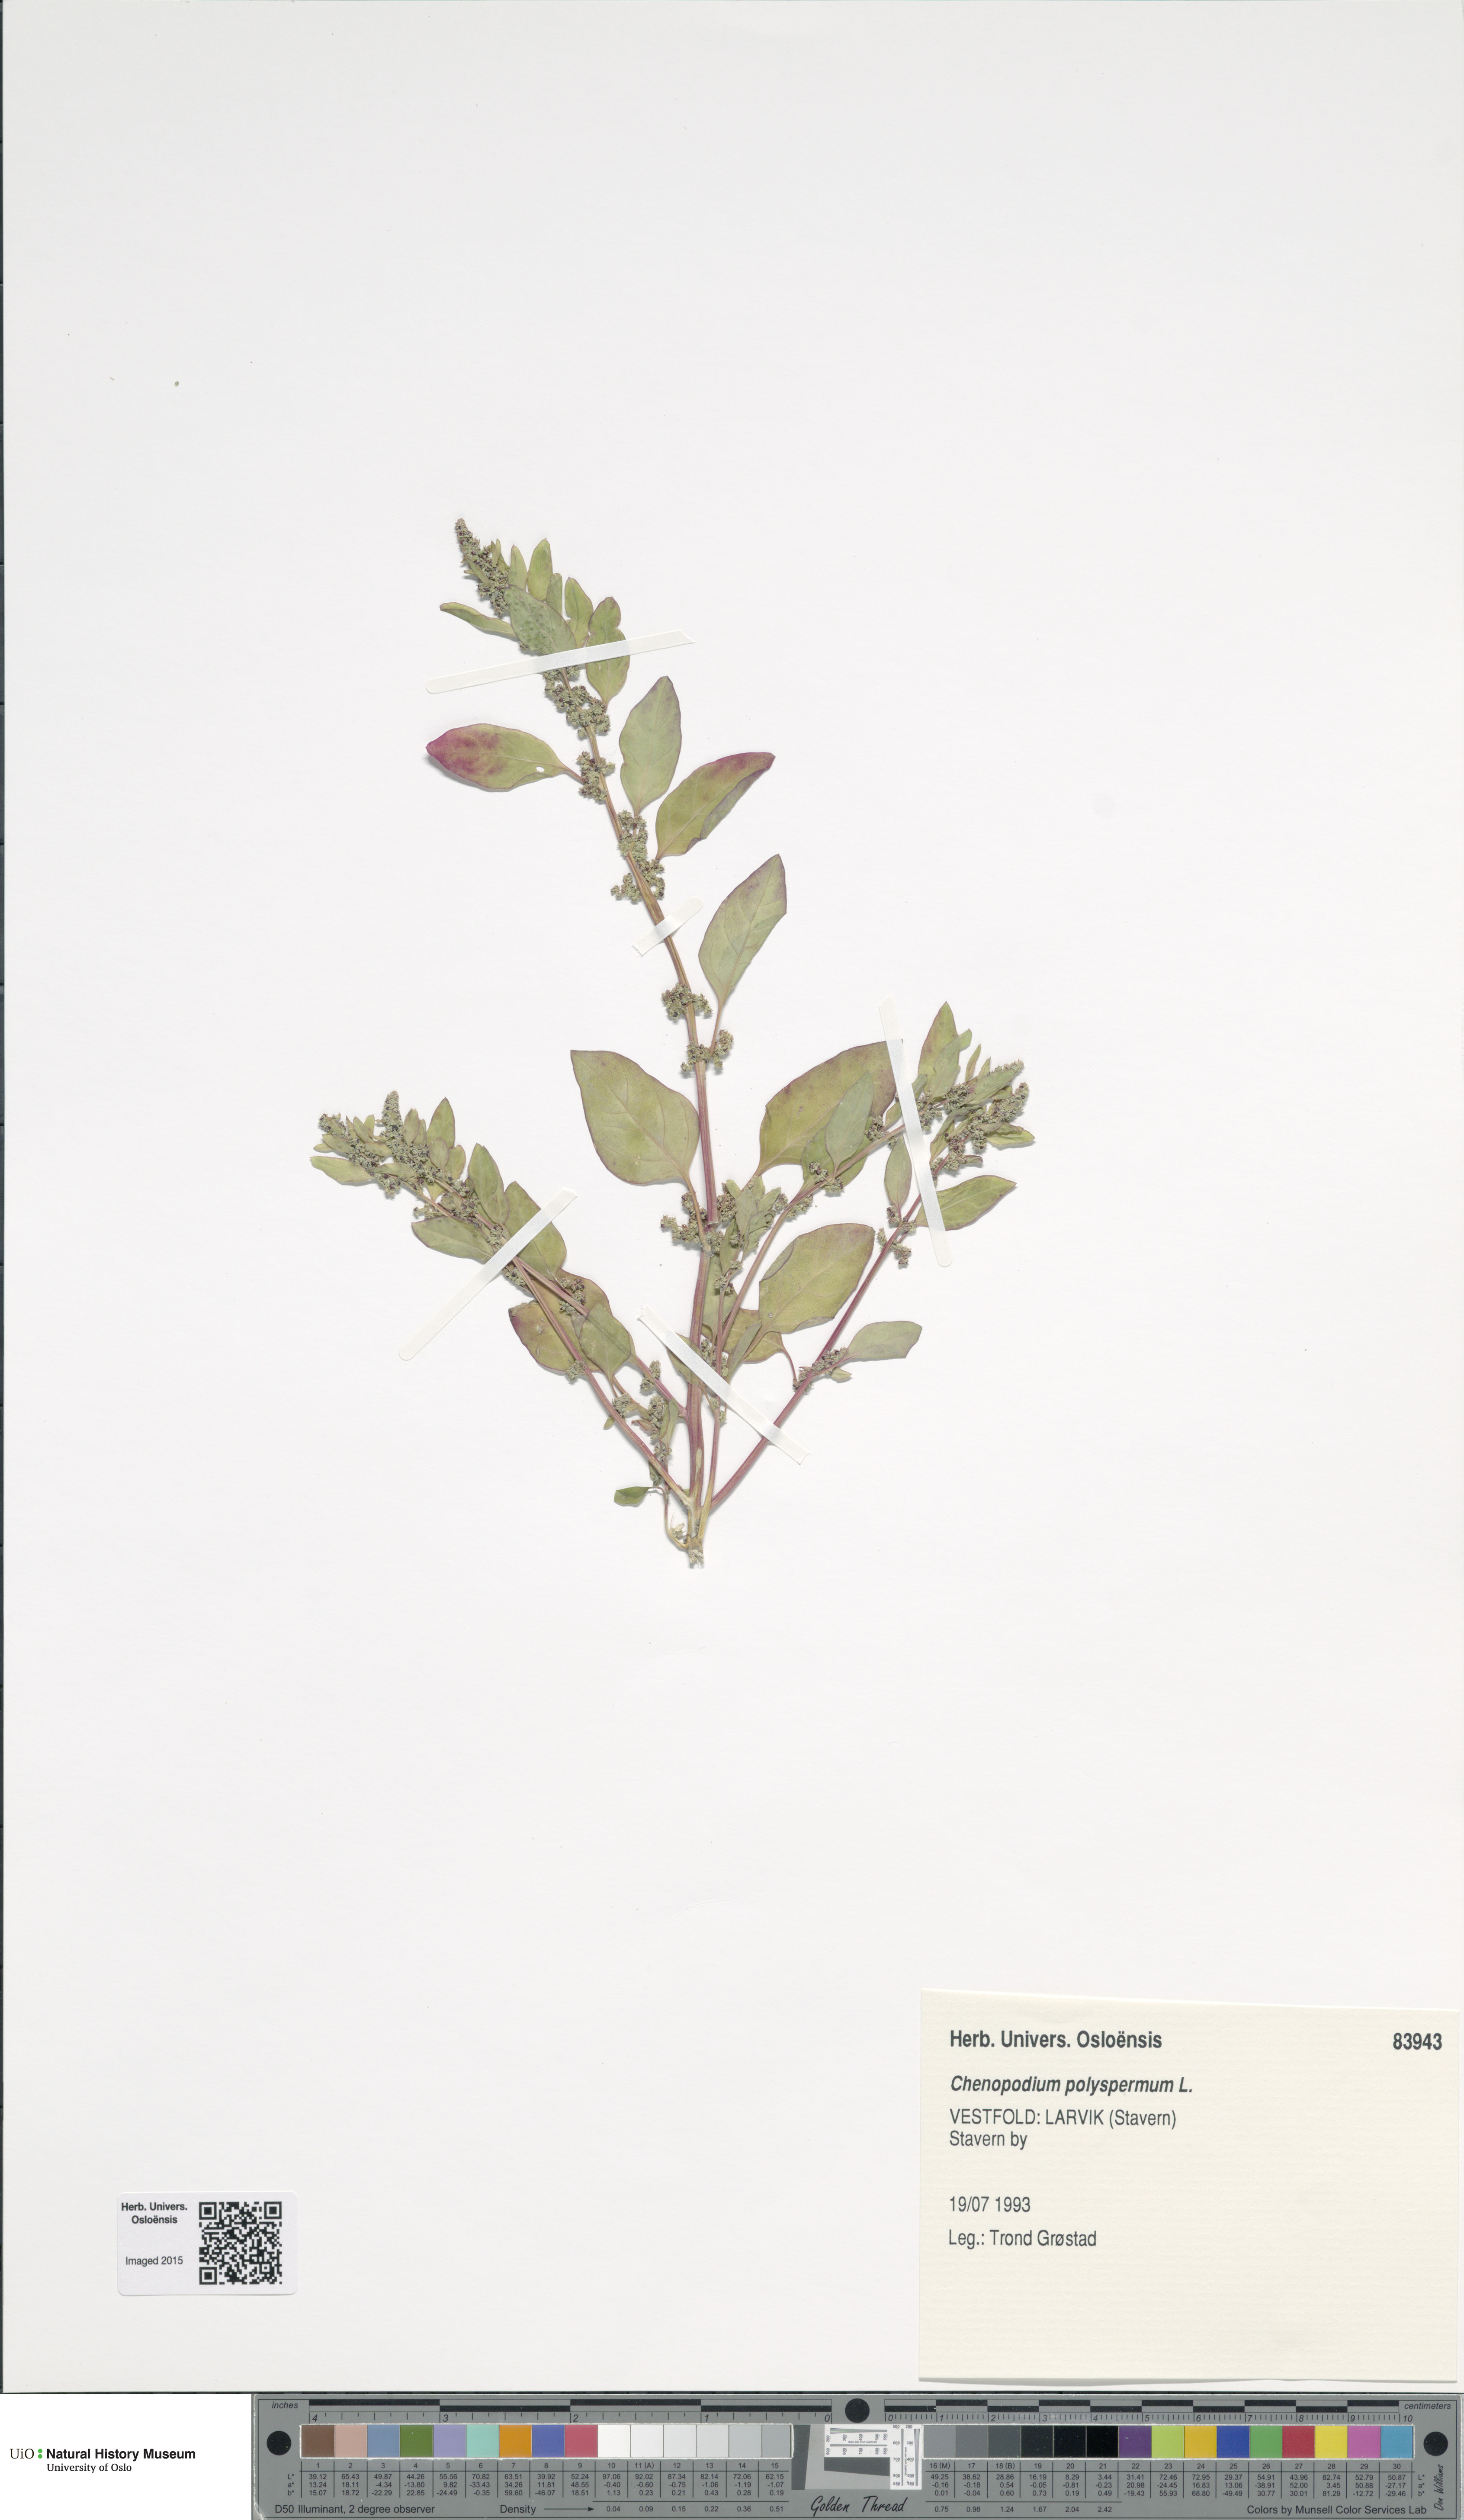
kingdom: Plantae
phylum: Tracheophyta
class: Magnoliopsida
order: Caryophyllales
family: Amaranthaceae
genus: Lipandra
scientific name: Lipandra polysperma
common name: Many-seed goosefoot
